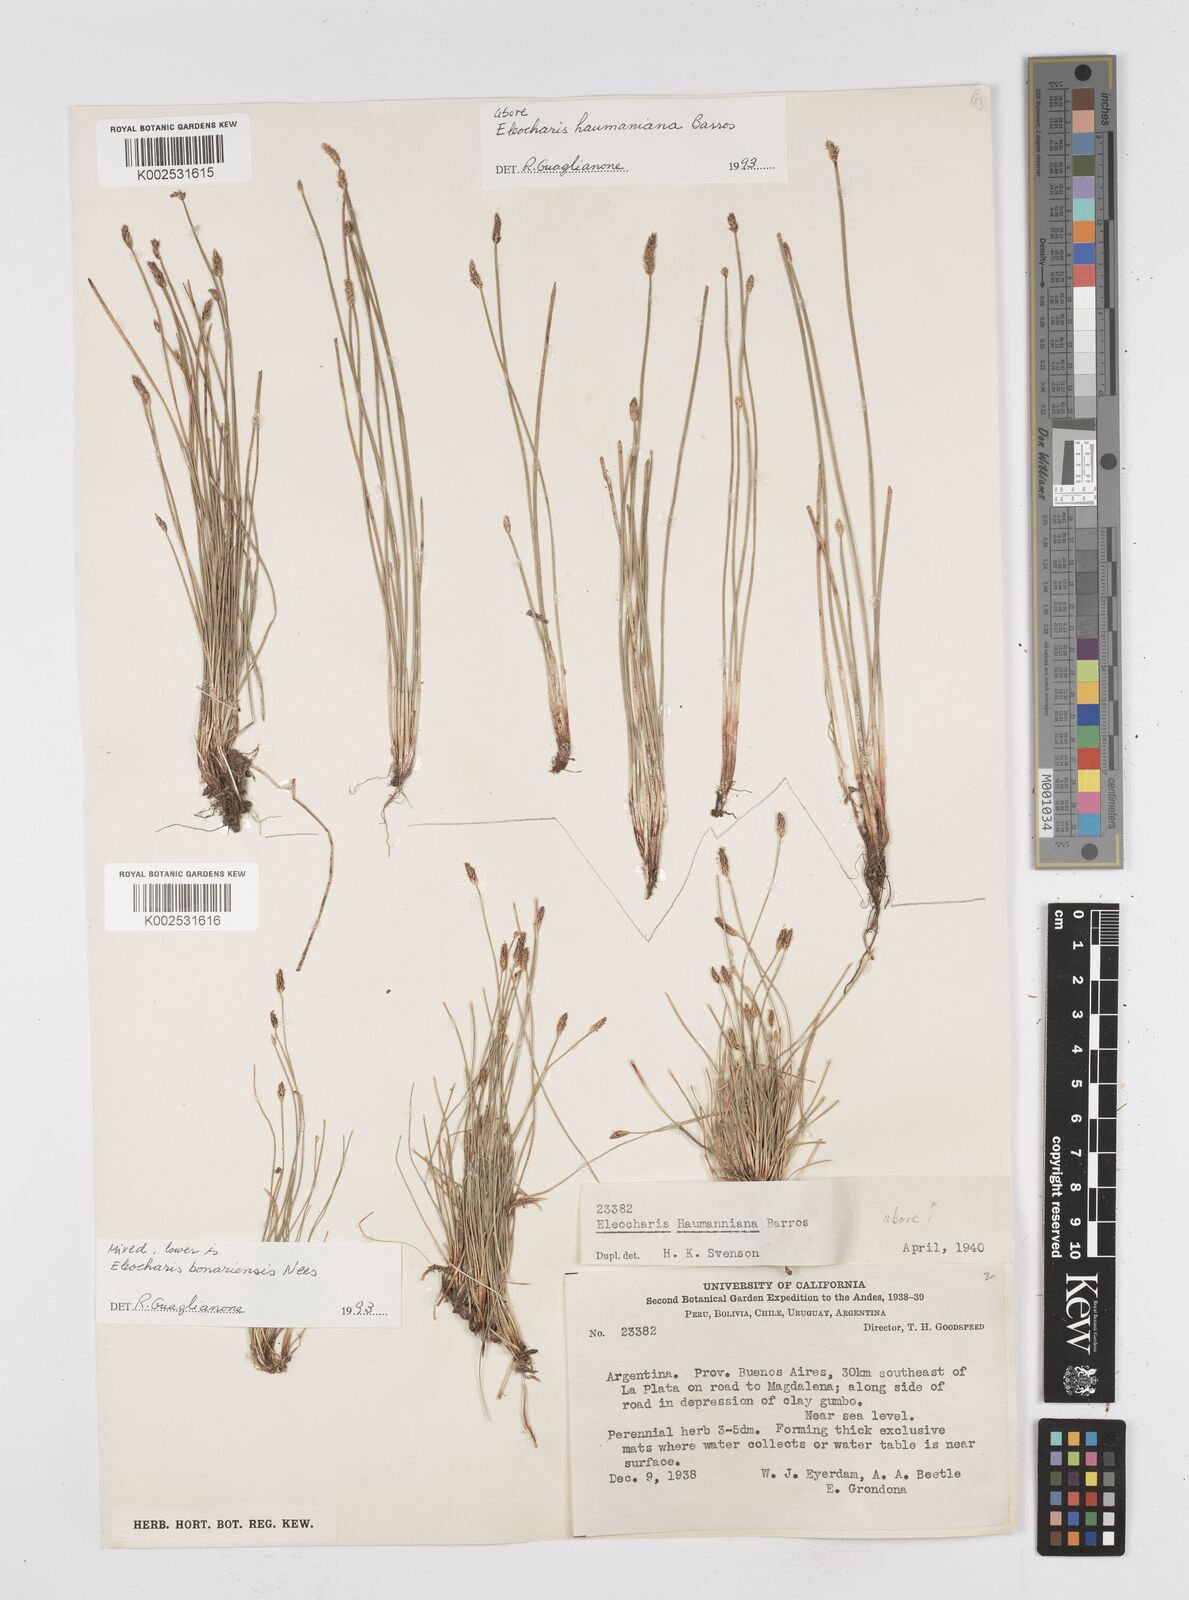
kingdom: Plantae
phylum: Tracheophyta
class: Liliopsida
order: Poales
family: Cyperaceae
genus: Eleocharis
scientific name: Eleocharis haumaniana
